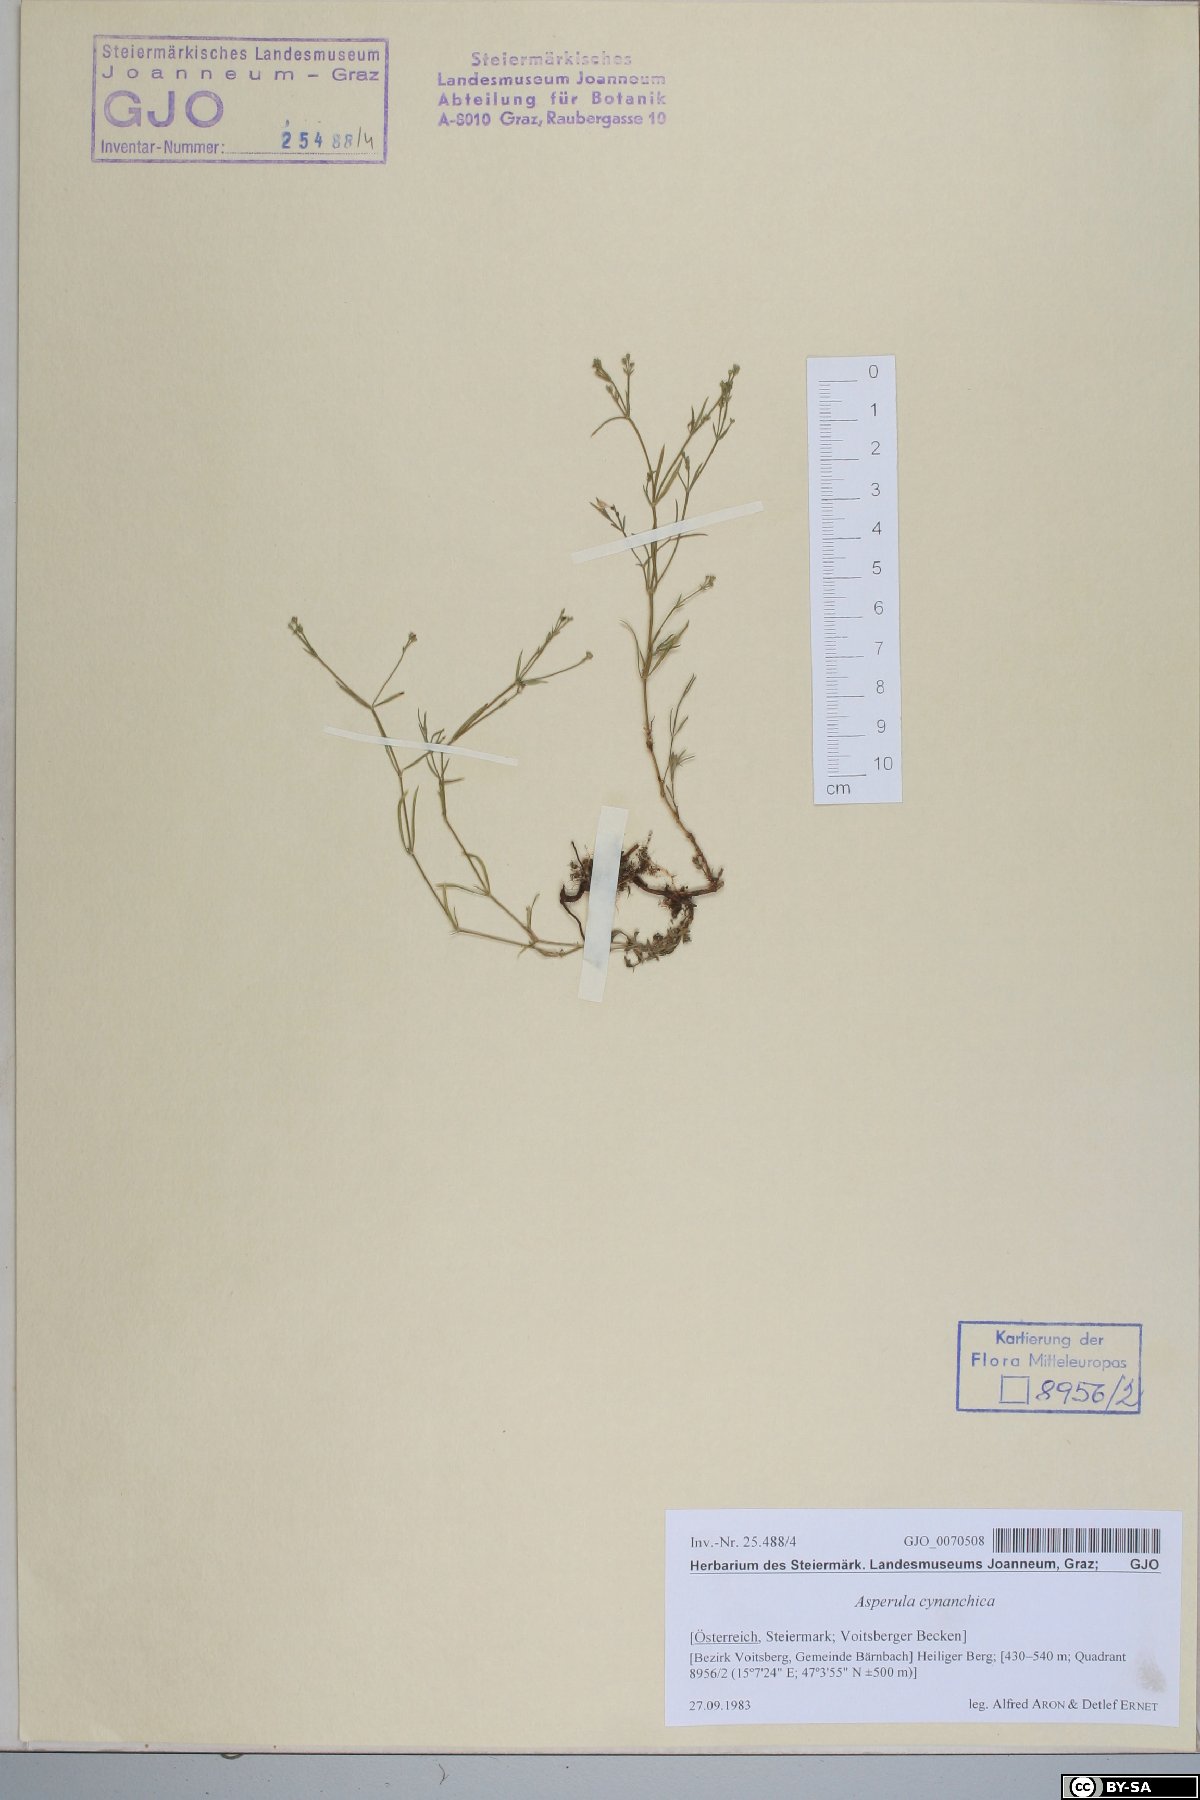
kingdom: Plantae
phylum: Tracheophyta
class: Magnoliopsida
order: Gentianales
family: Rubiaceae
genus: Cynanchica
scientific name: Cynanchica pyrenaica
